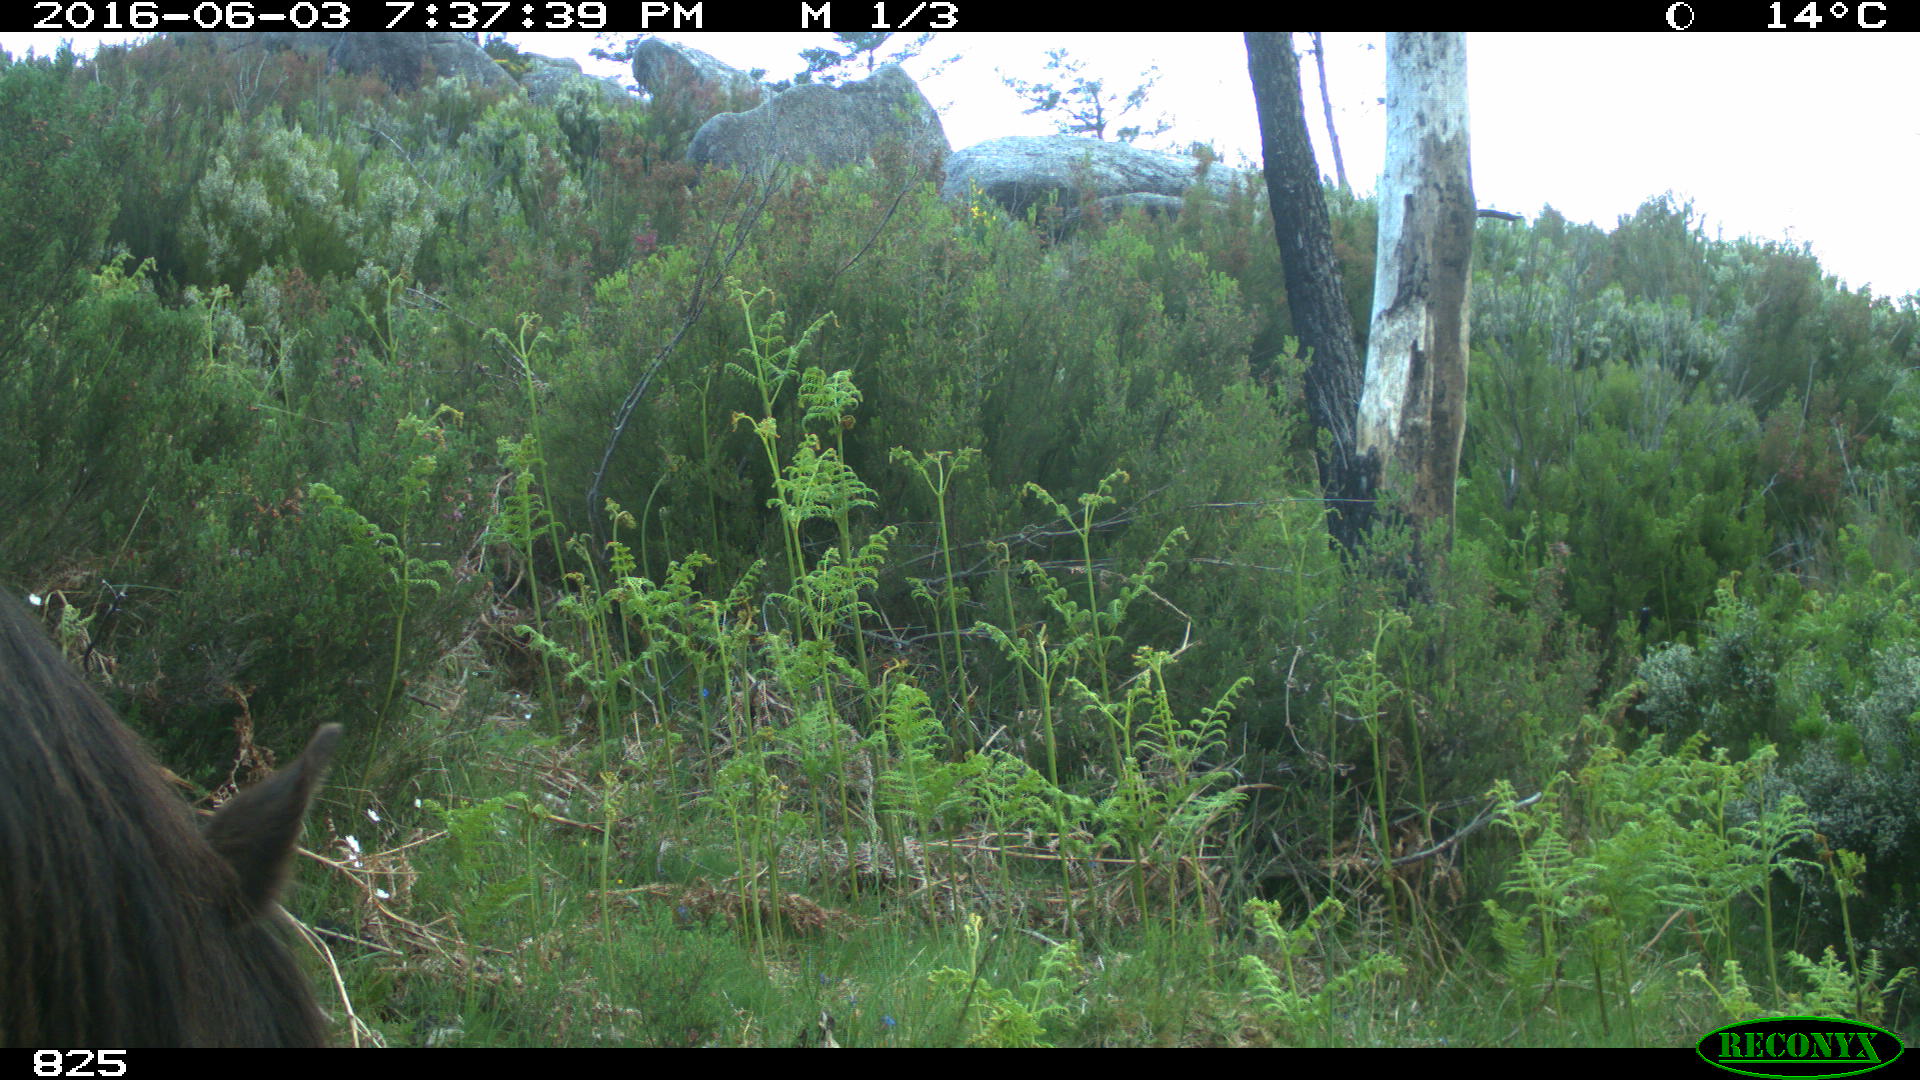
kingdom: Animalia
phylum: Chordata
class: Mammalia
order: Perissodactyla
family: Equidae
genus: Equus
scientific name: Equus caballus
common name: Horse
